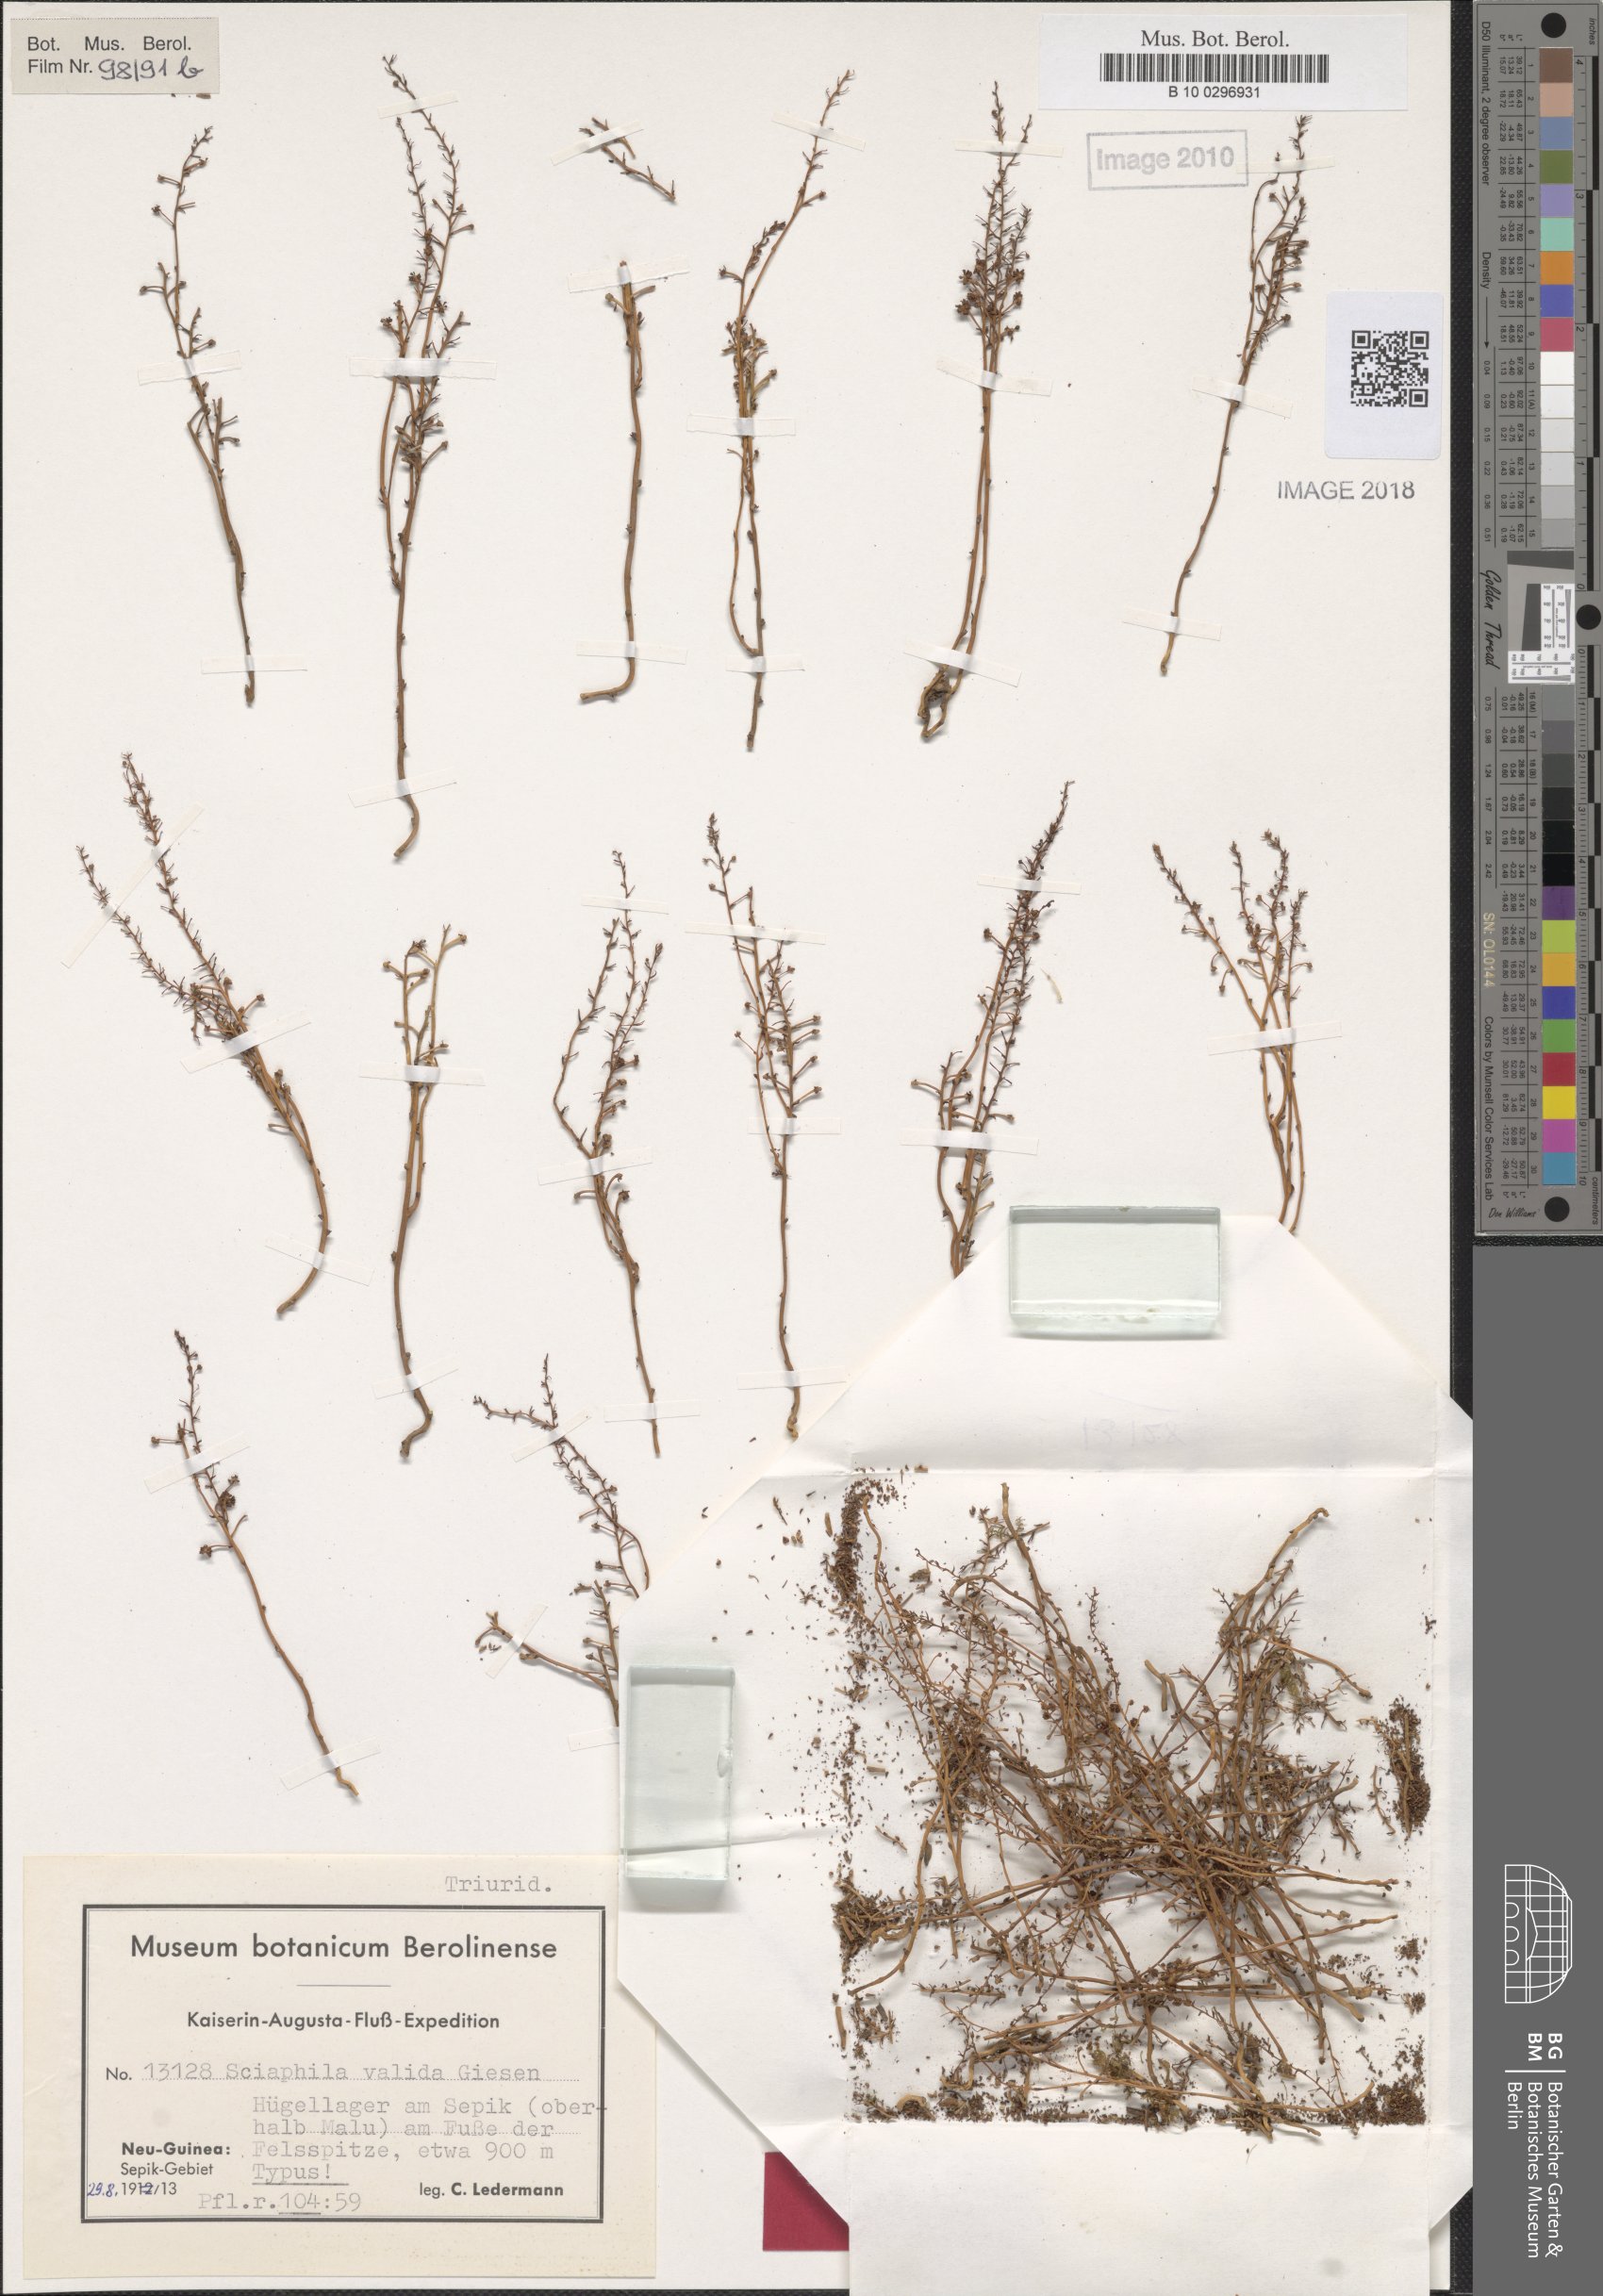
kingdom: Plantae
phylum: Tracheophyta
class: Liliopsida
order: Pandanales
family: Triuridaceae
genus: Sciaphila
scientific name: Sciaphila arfakiana
